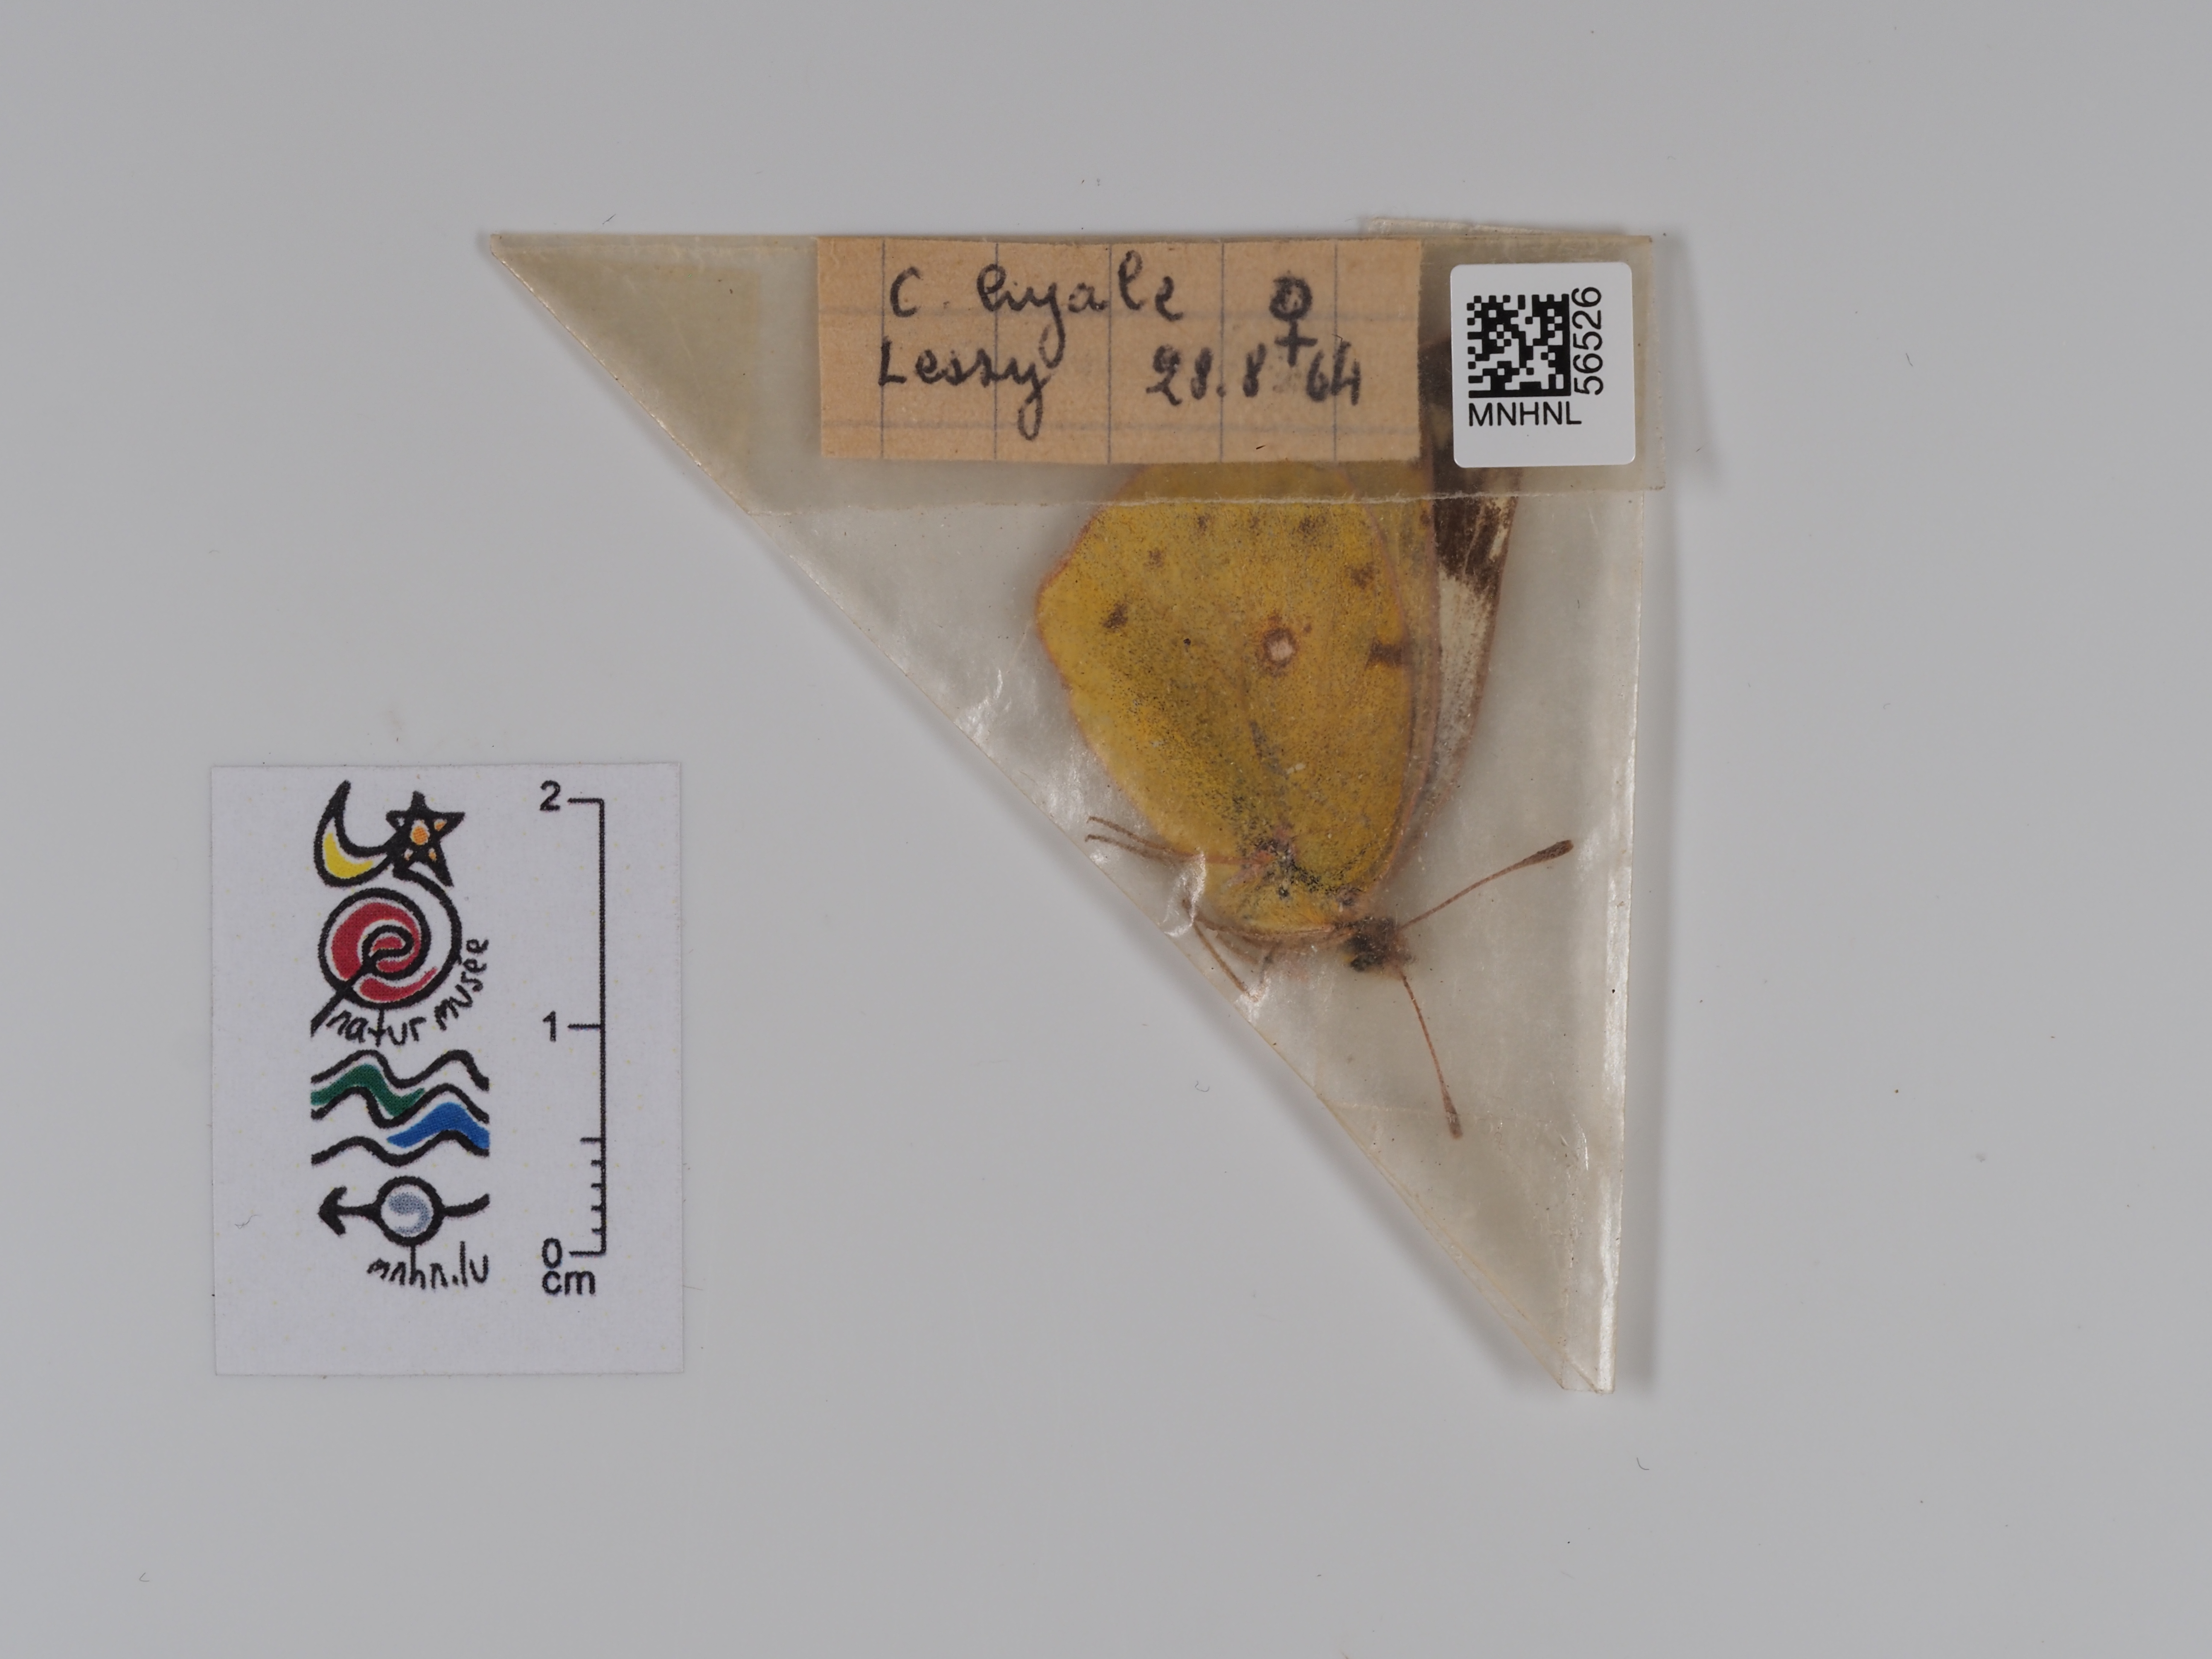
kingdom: Animalia
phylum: Arthropoda
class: Insecta
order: Lepidoptera
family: Pieridae
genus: Colias
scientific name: Colias hyale
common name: Pale clouded yellow
